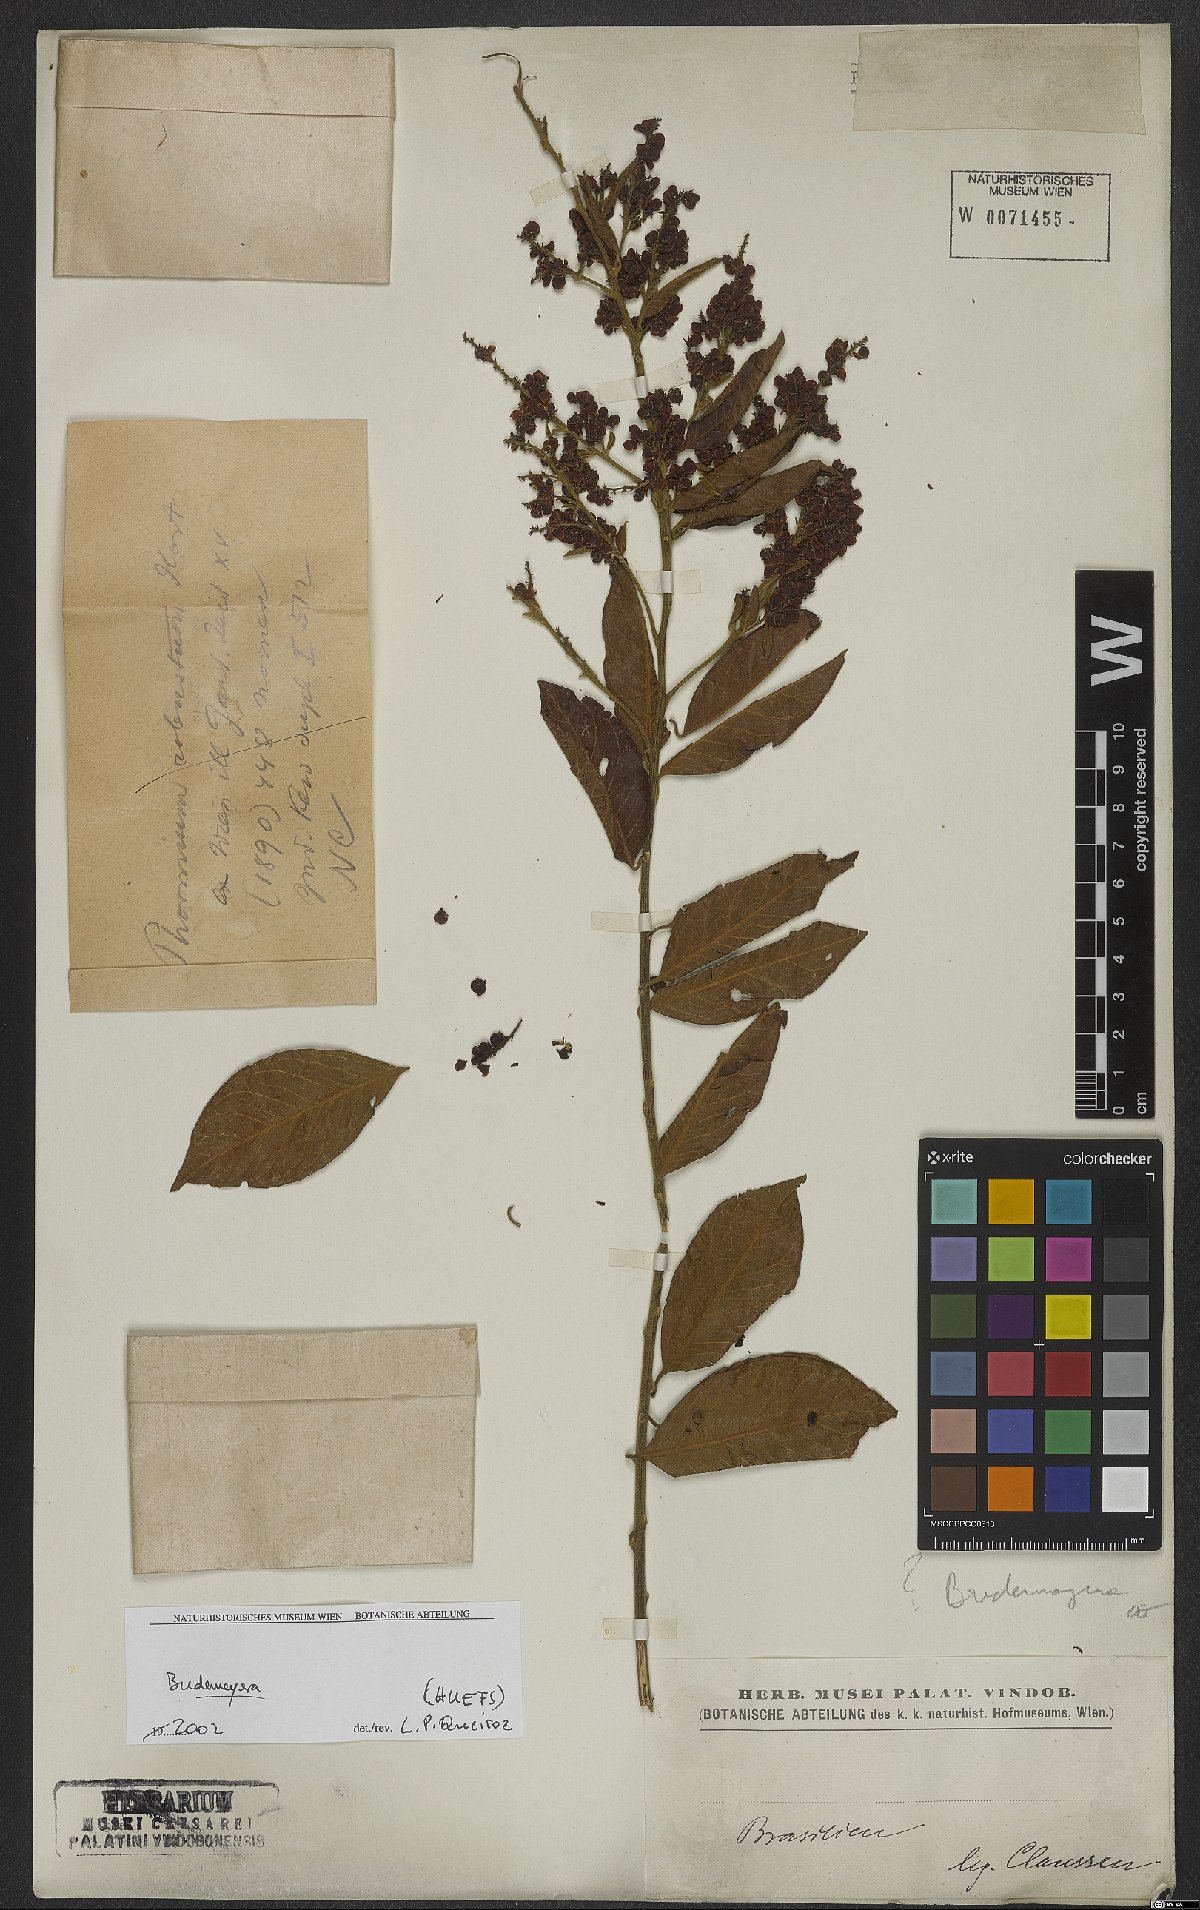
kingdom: Plantae
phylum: Tracheophyta
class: Magnoliopsida
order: Fabales
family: Polygalaceae
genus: Bredemeyera
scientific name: Bredemeyera
